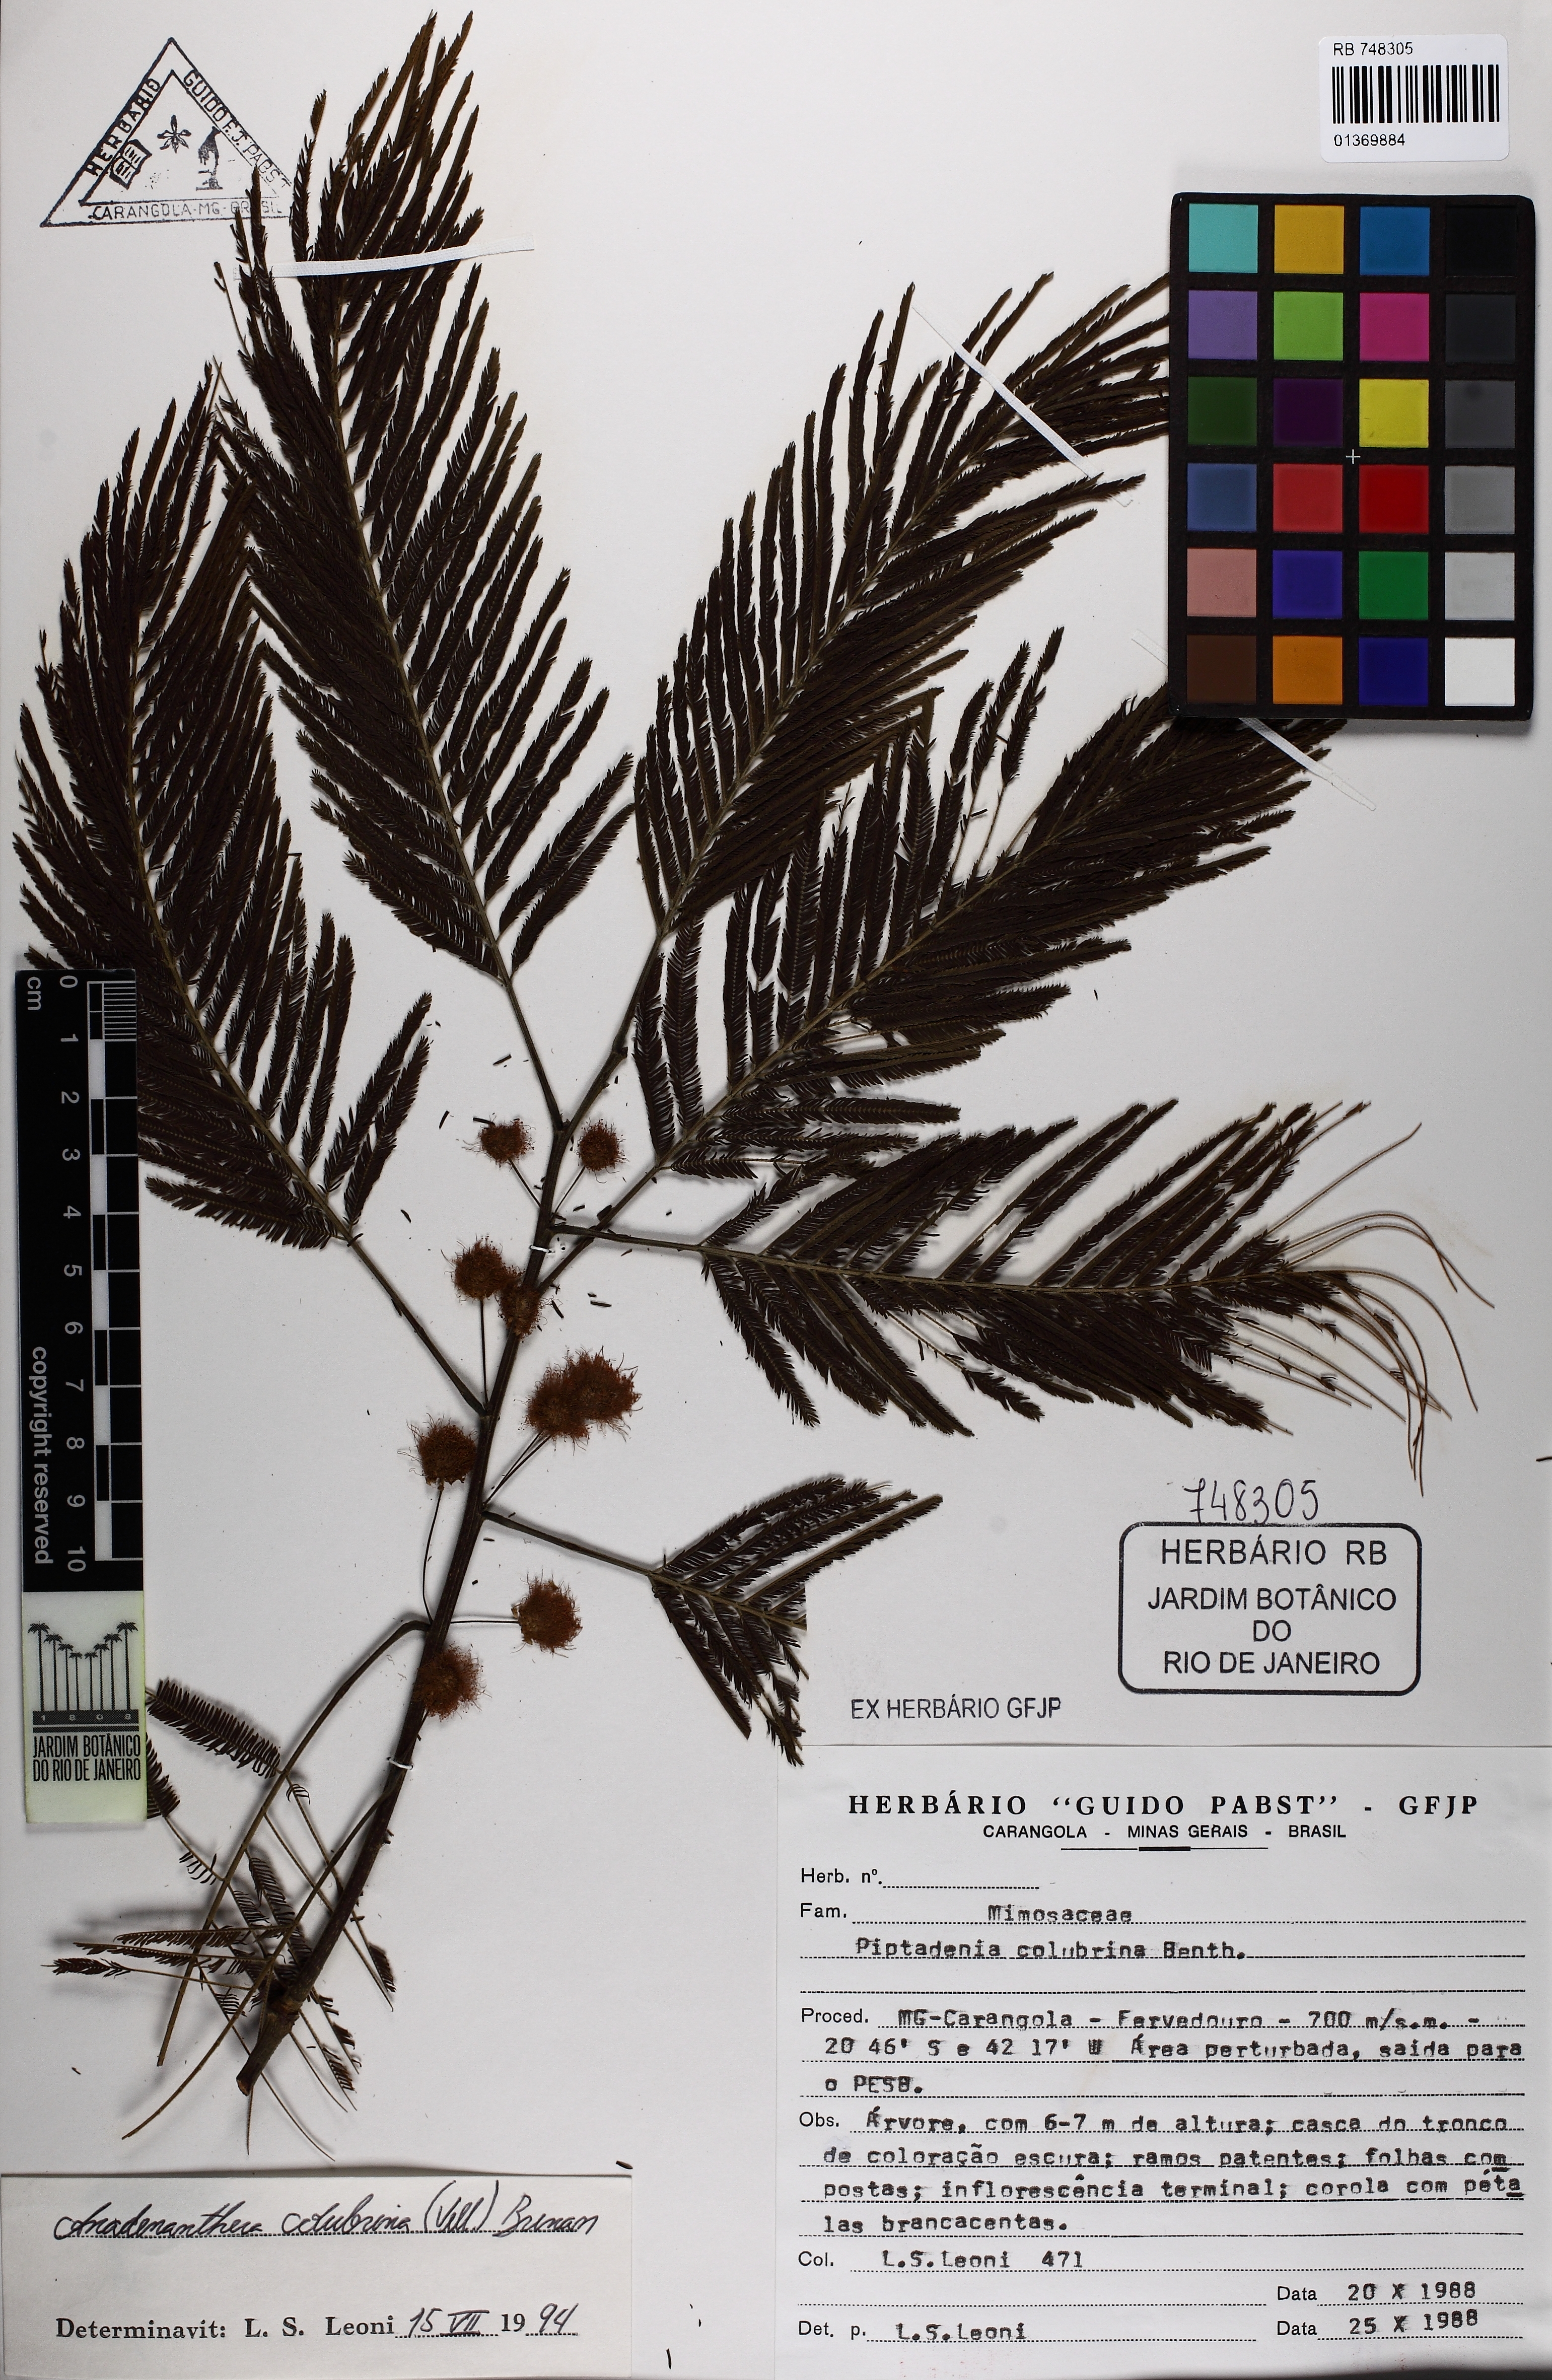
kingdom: Plantae
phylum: Tracheophyta
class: Magnoliopsida
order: Fabales
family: Fabaceae
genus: Anadenanthera
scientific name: Anadenanthera colubrina
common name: Curupay
